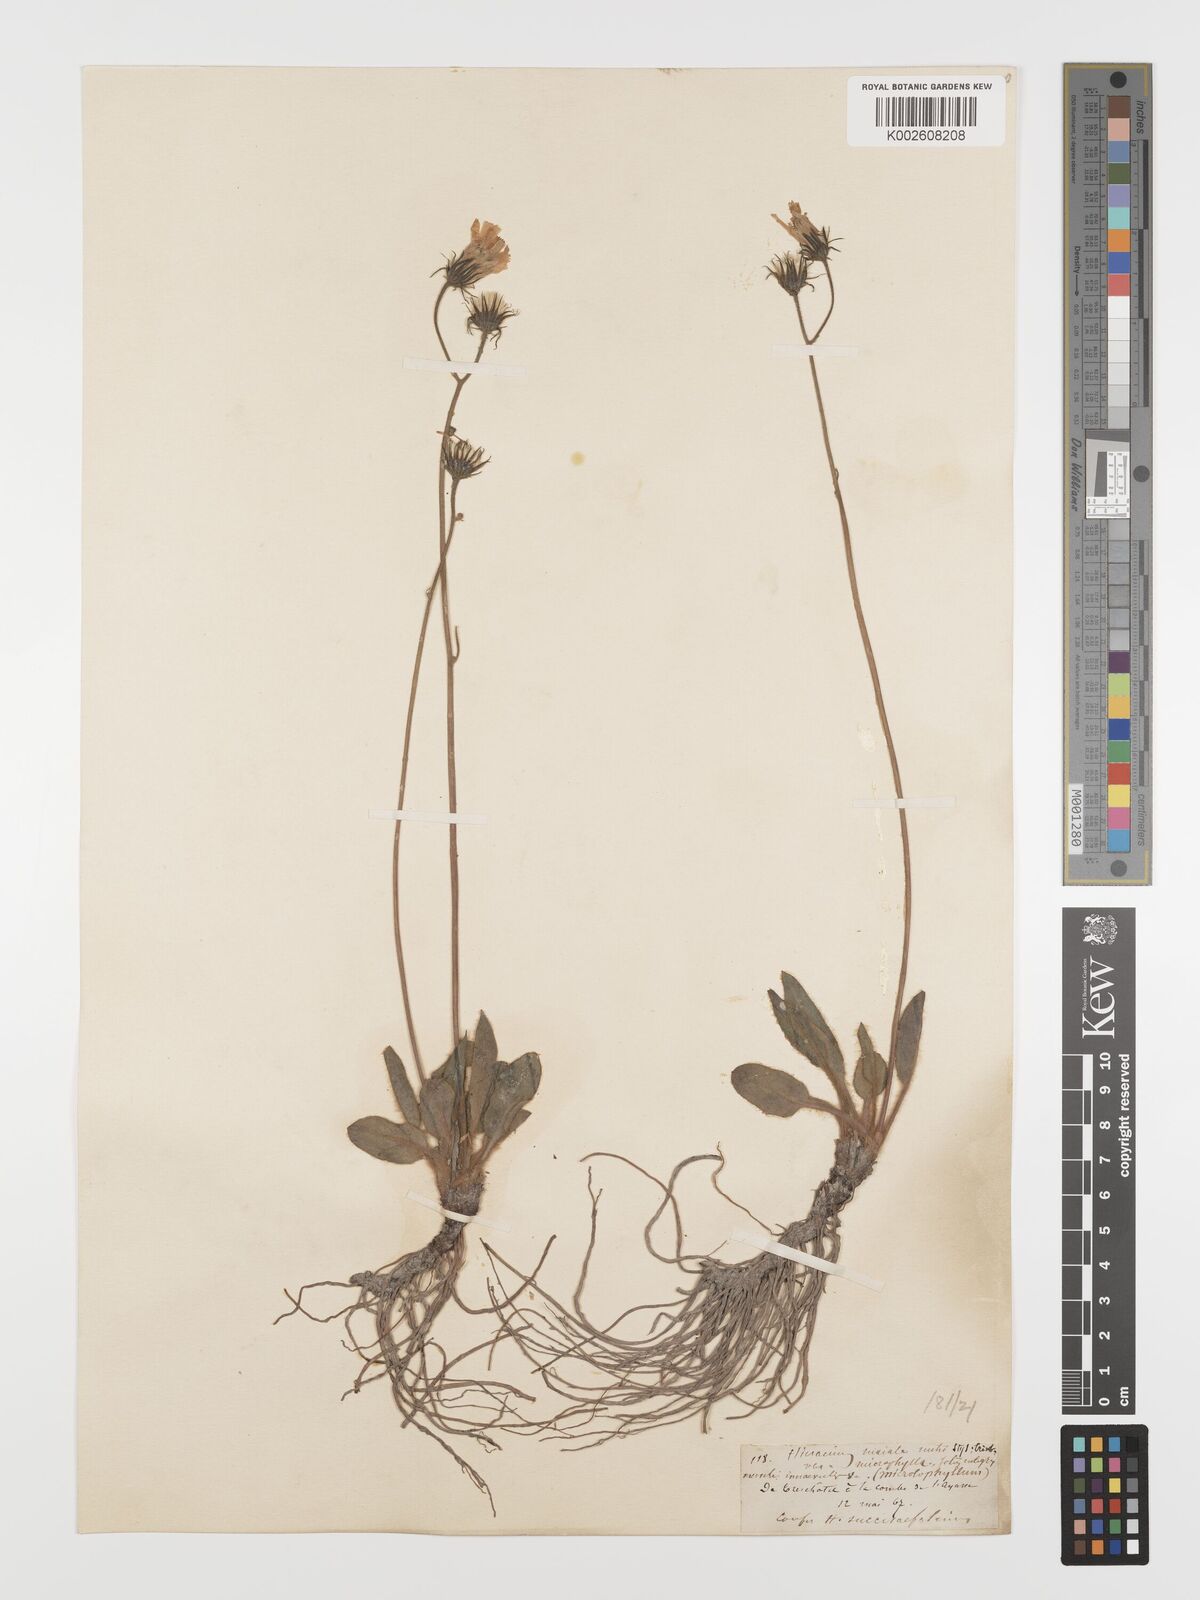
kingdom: Plantae
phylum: Tracheophyta
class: Magnoliopsida
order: Asterales
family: Asteraceae
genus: Hieracium
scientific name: Hieracium
